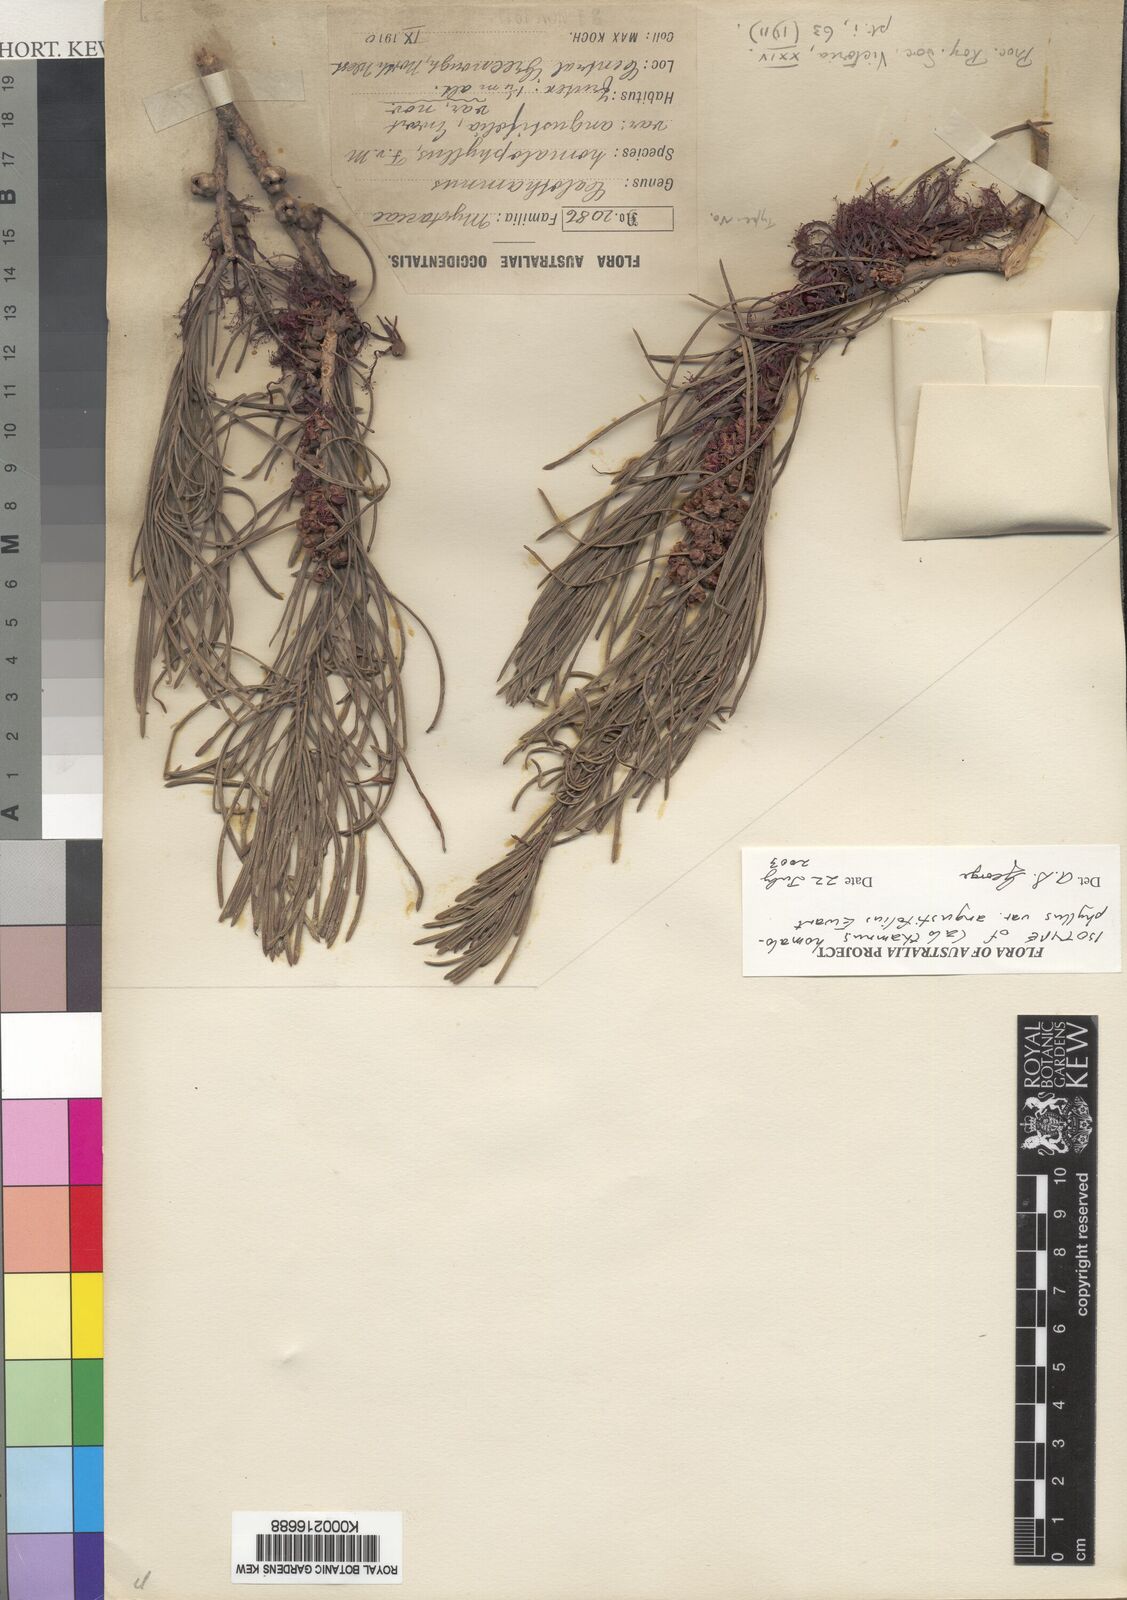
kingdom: Plantae
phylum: Tracheophyta
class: Magnoliopsida
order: Myrtales
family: Myrtaceae
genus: Melaleuca
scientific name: Melaleuca
